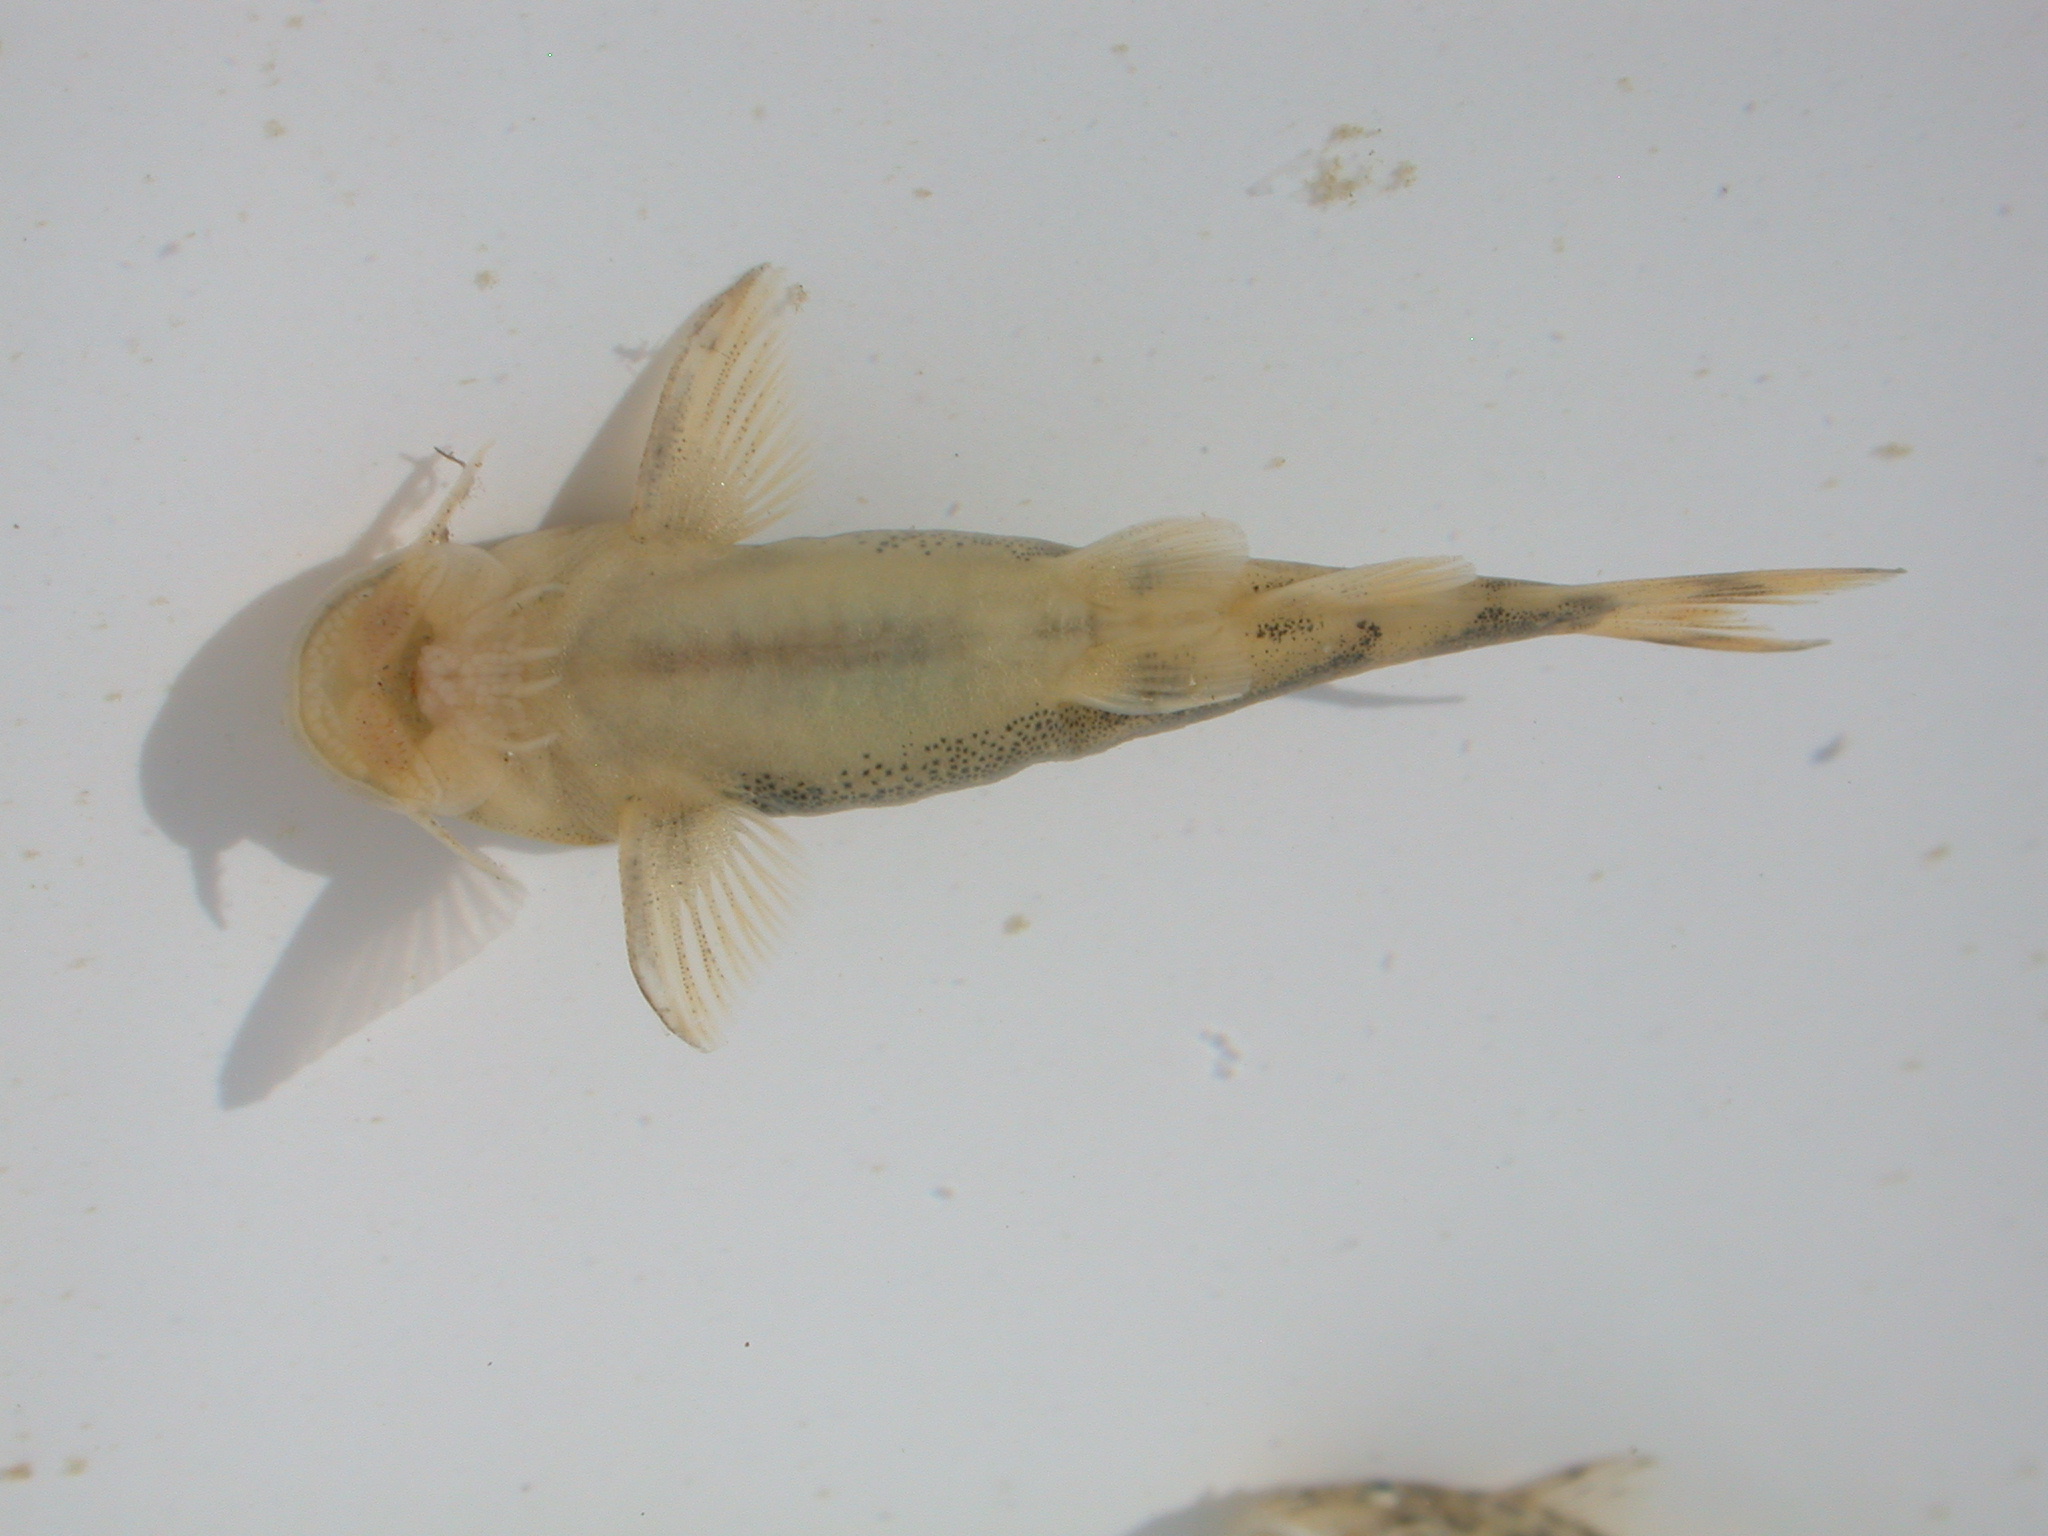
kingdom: Animalia
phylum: Chordata
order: Siluriformes
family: Mochokidae
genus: Chiloglanis
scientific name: Chiloglanis
